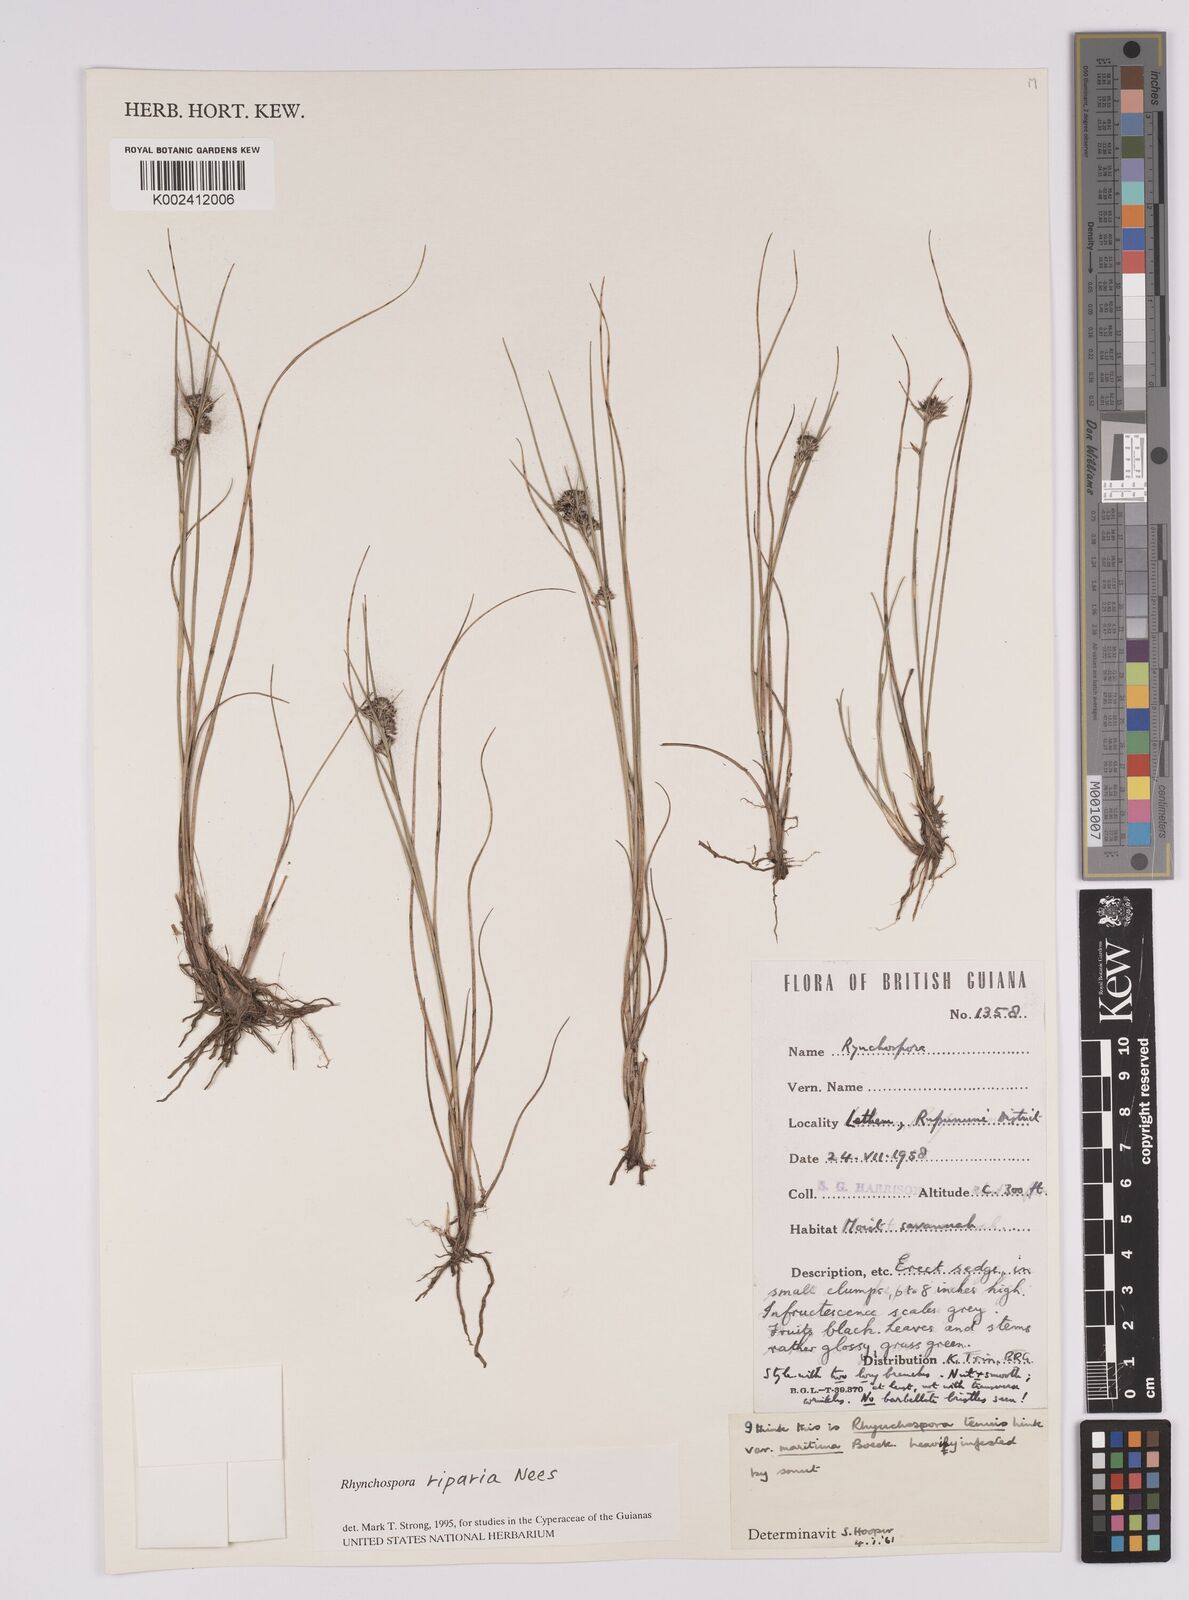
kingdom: Plantae
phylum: Tracheophyta
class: Liliopsida
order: Poales
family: Cyperaceae
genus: Rhynchospora
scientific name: Rhynchospora riparia
